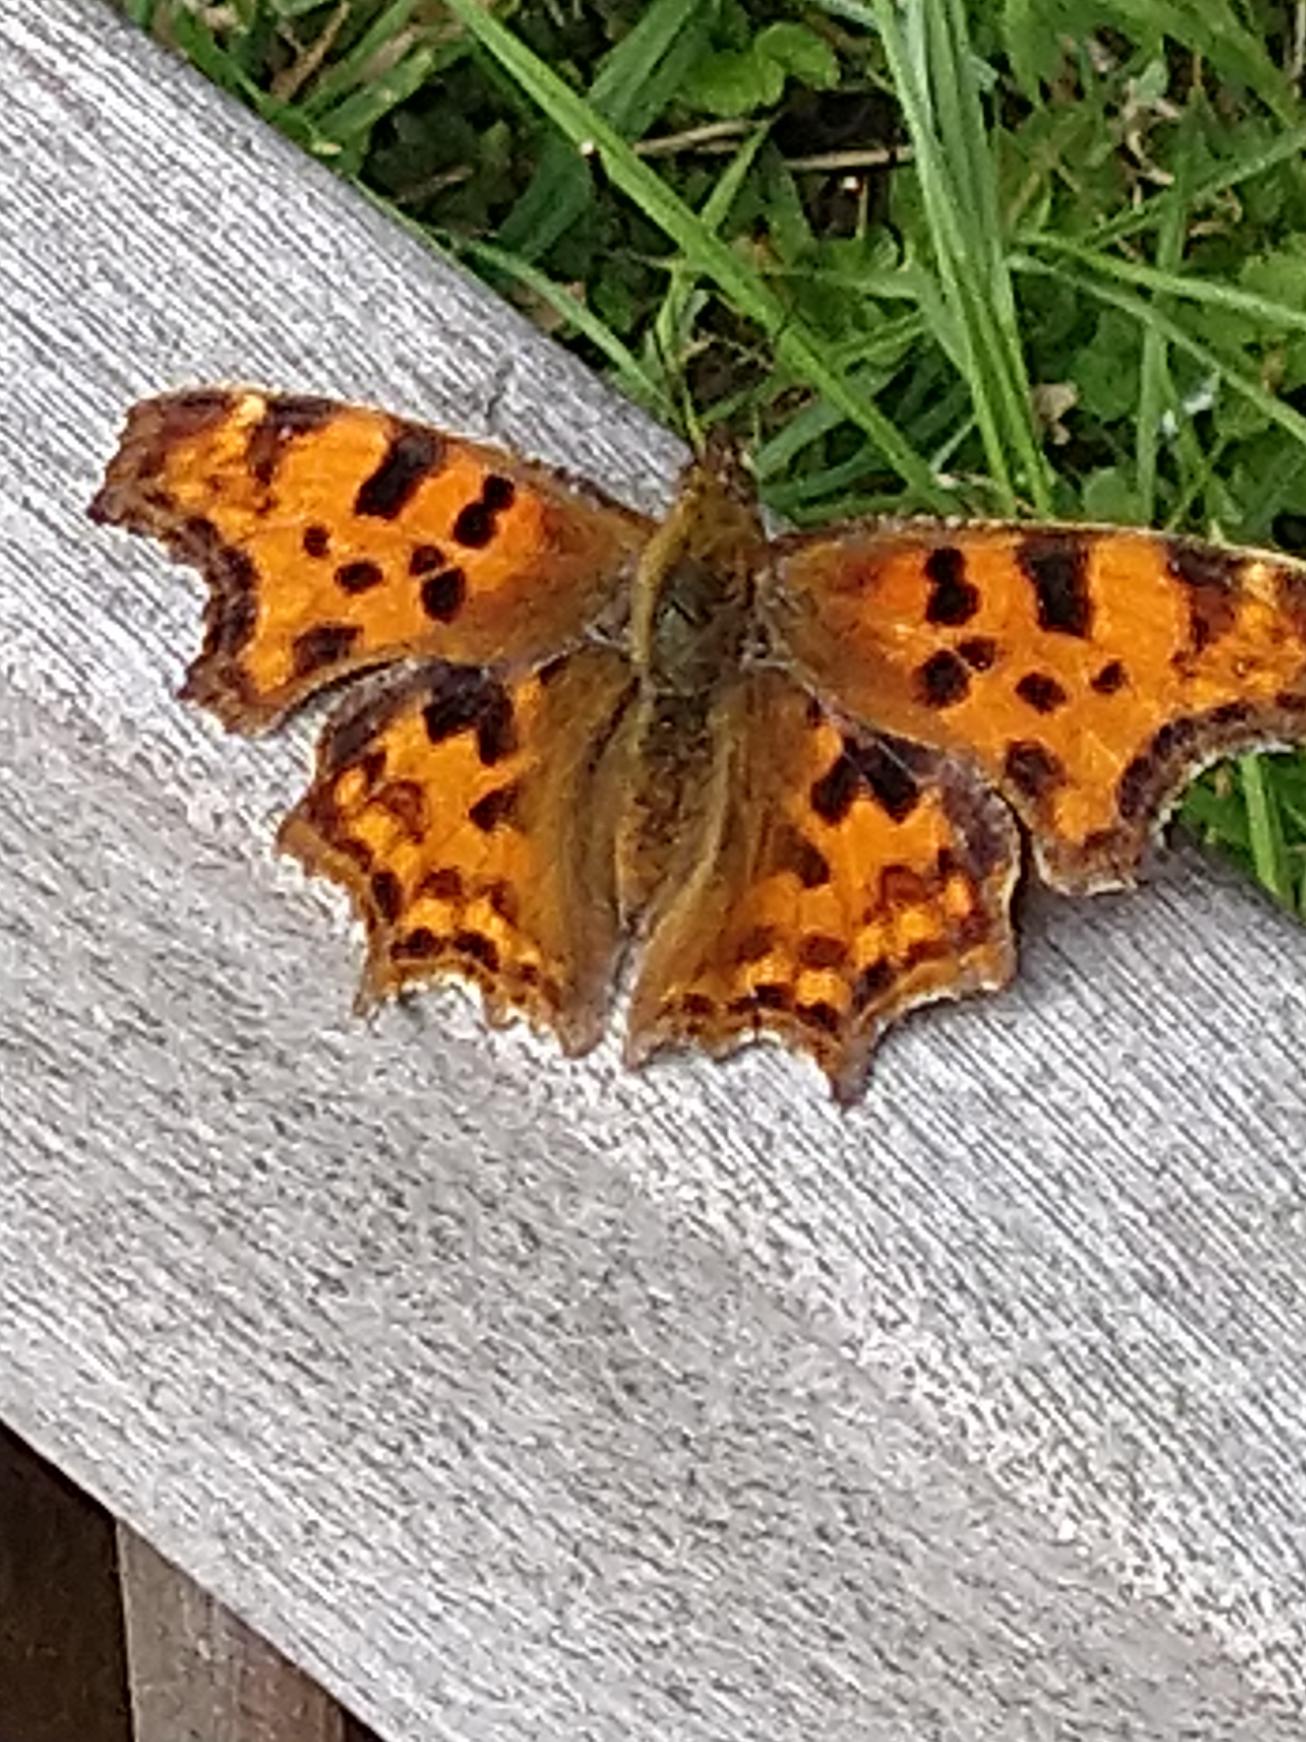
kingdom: Animalia
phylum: Arthropoda
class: Insecta
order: Lepidoptera
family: Nymphalidae
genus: Polygonia
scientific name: Polygonia c-album
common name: Det hvide C
